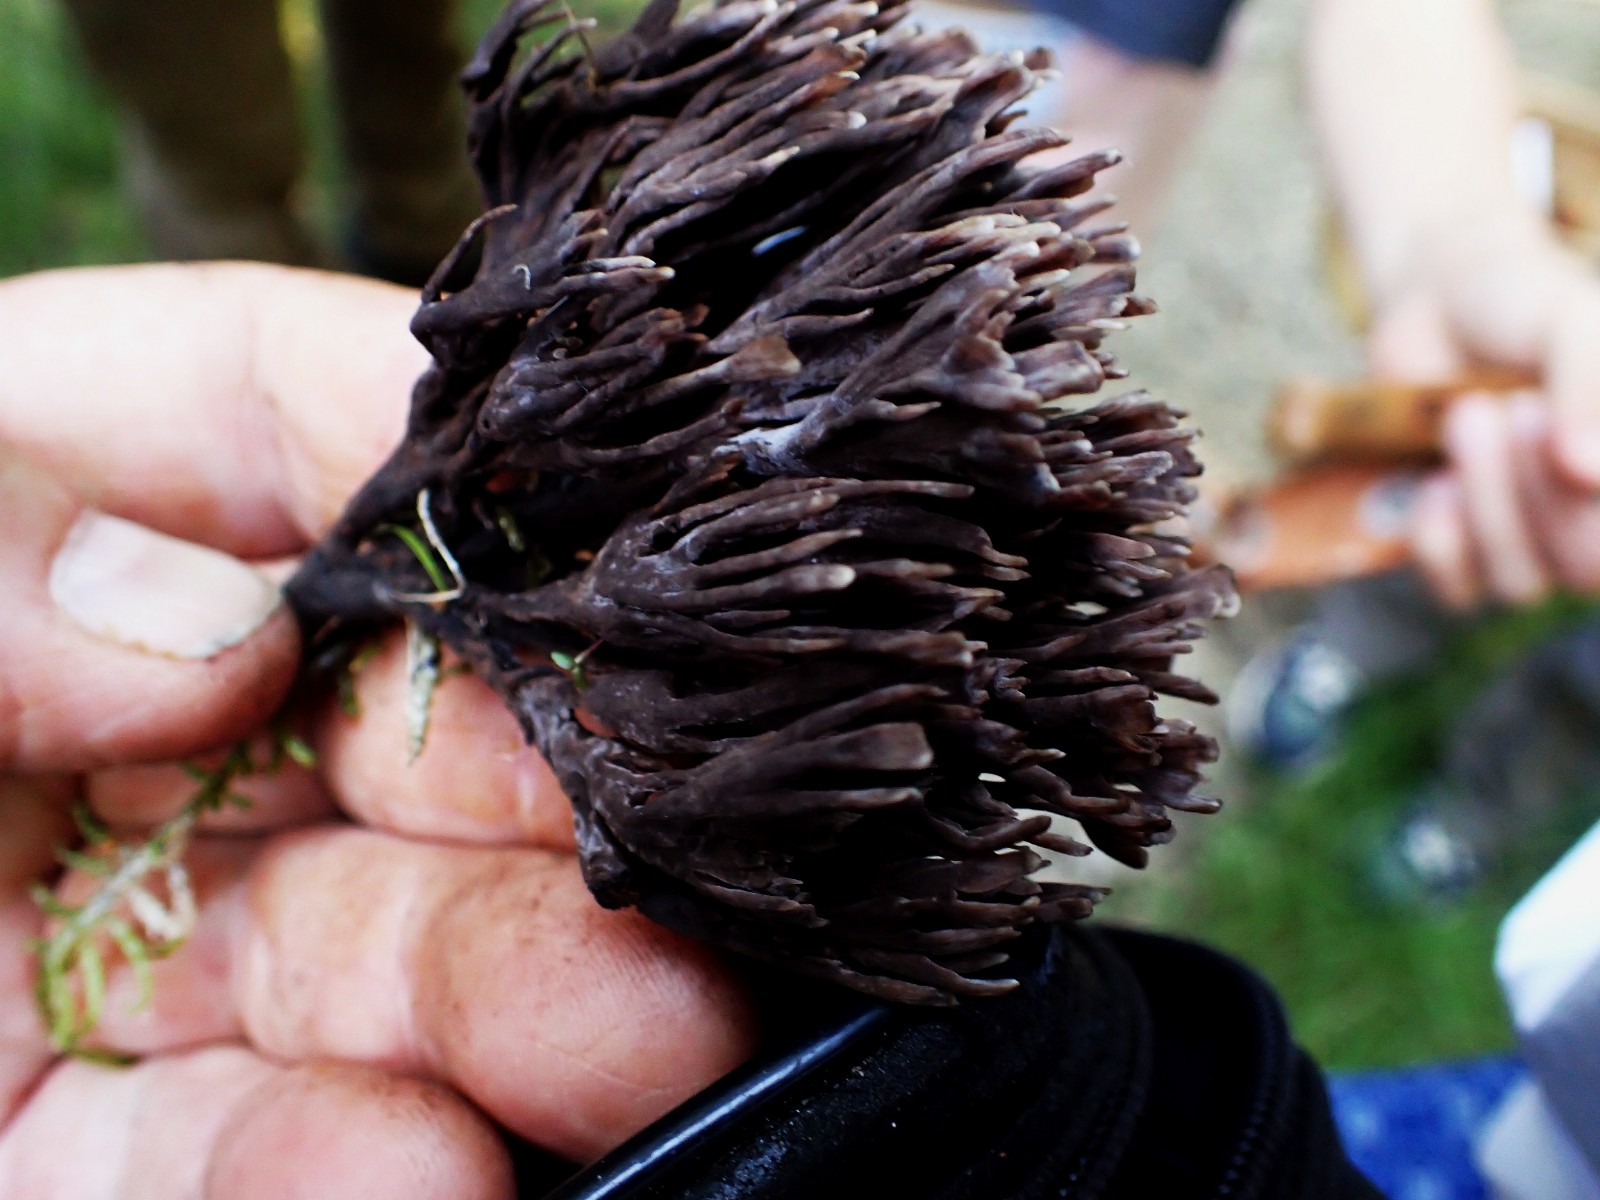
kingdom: Fungi
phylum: Basidiomycota
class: Agaricomycetes
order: Thelephorales
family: Thelephoraceae
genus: Thelephora
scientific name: Thelephora palmata
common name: grenet frynsesvamp
